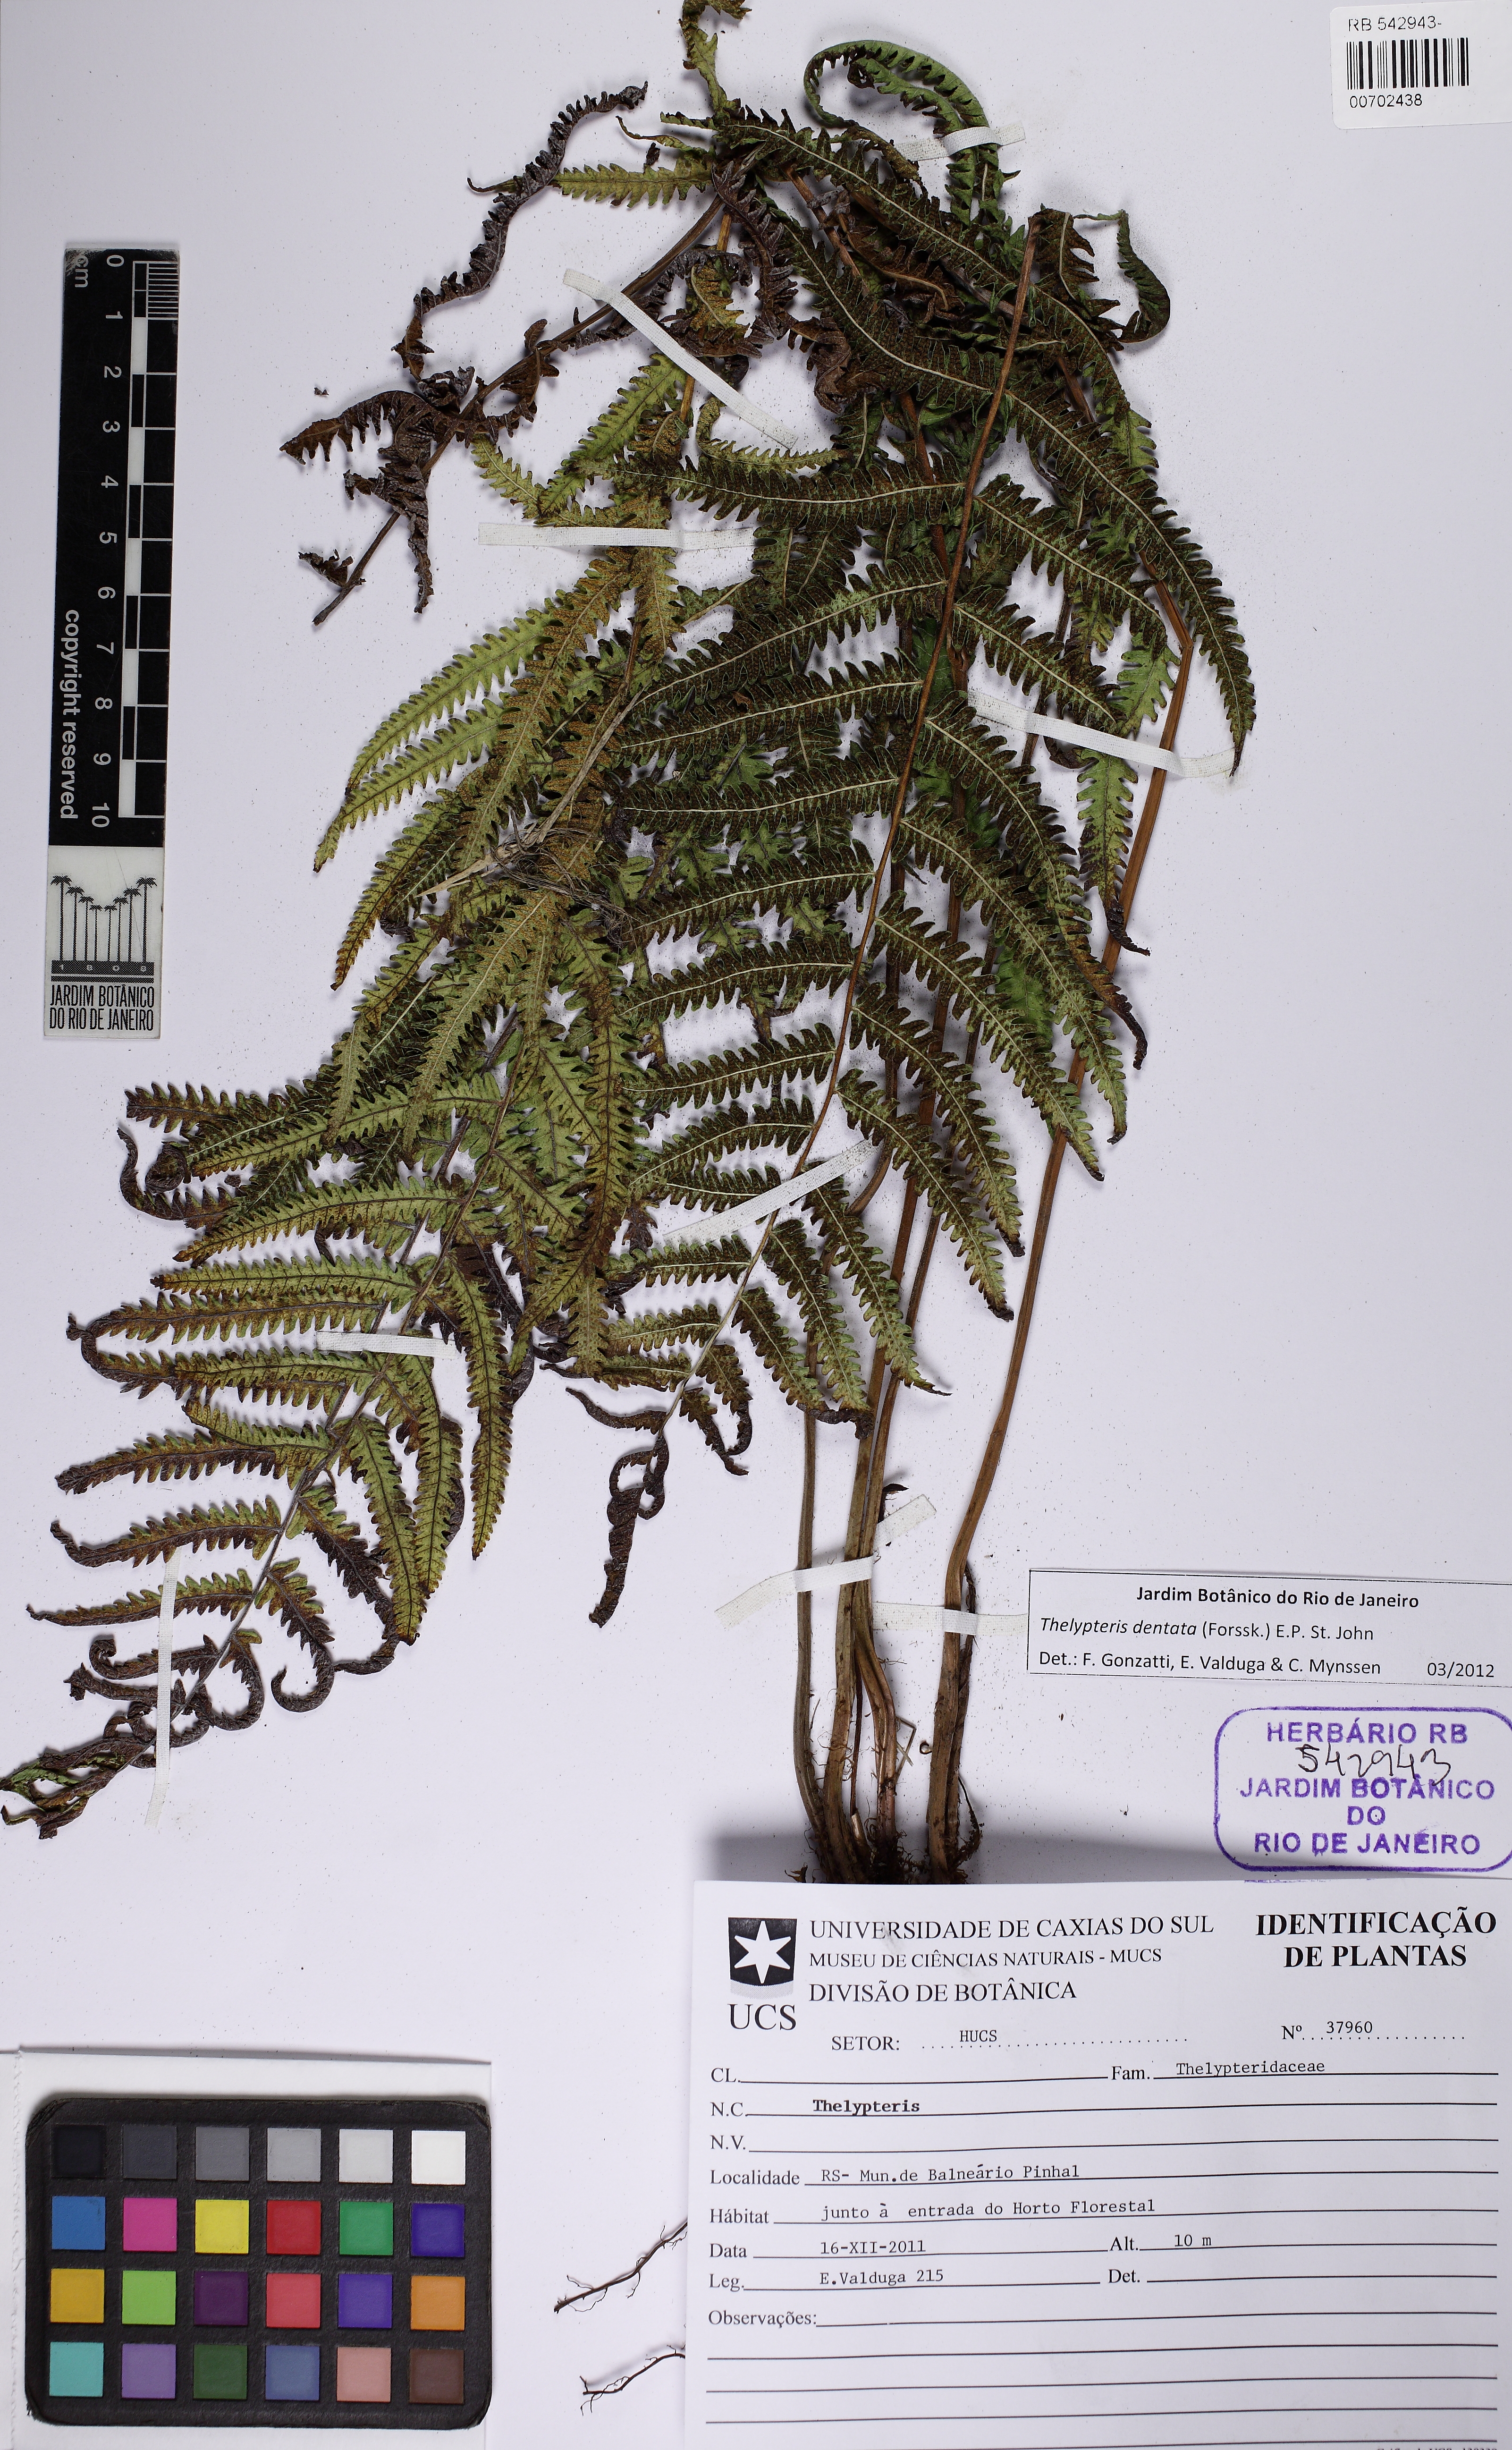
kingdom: Plantae
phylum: Tracheophyta
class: Polypodiopsida
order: Polypodiales
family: Thelypteridaceae
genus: Christella
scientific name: Christella dentata
